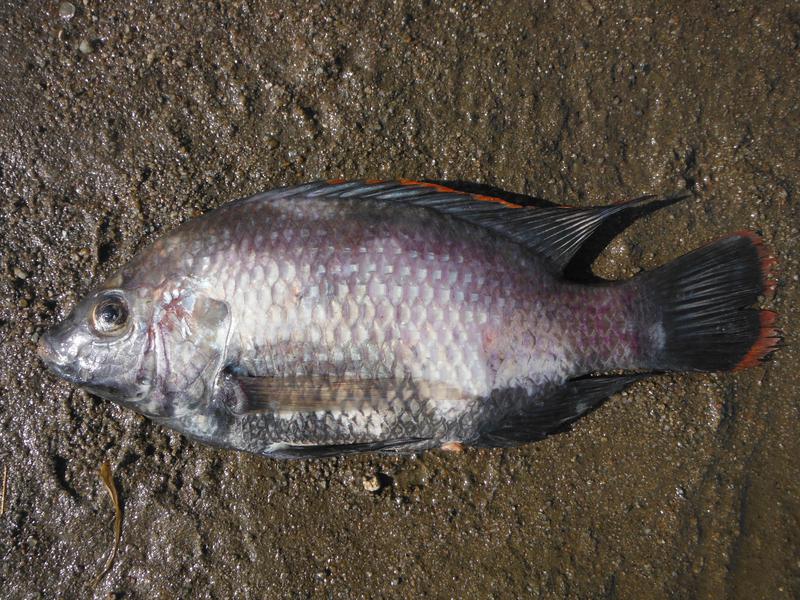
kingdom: Animalia
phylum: Chordata
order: Perciformes
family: Cichlidae
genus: Oreochromis
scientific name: Oreochromis rukwaensis
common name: Lake rukwa tilapia
